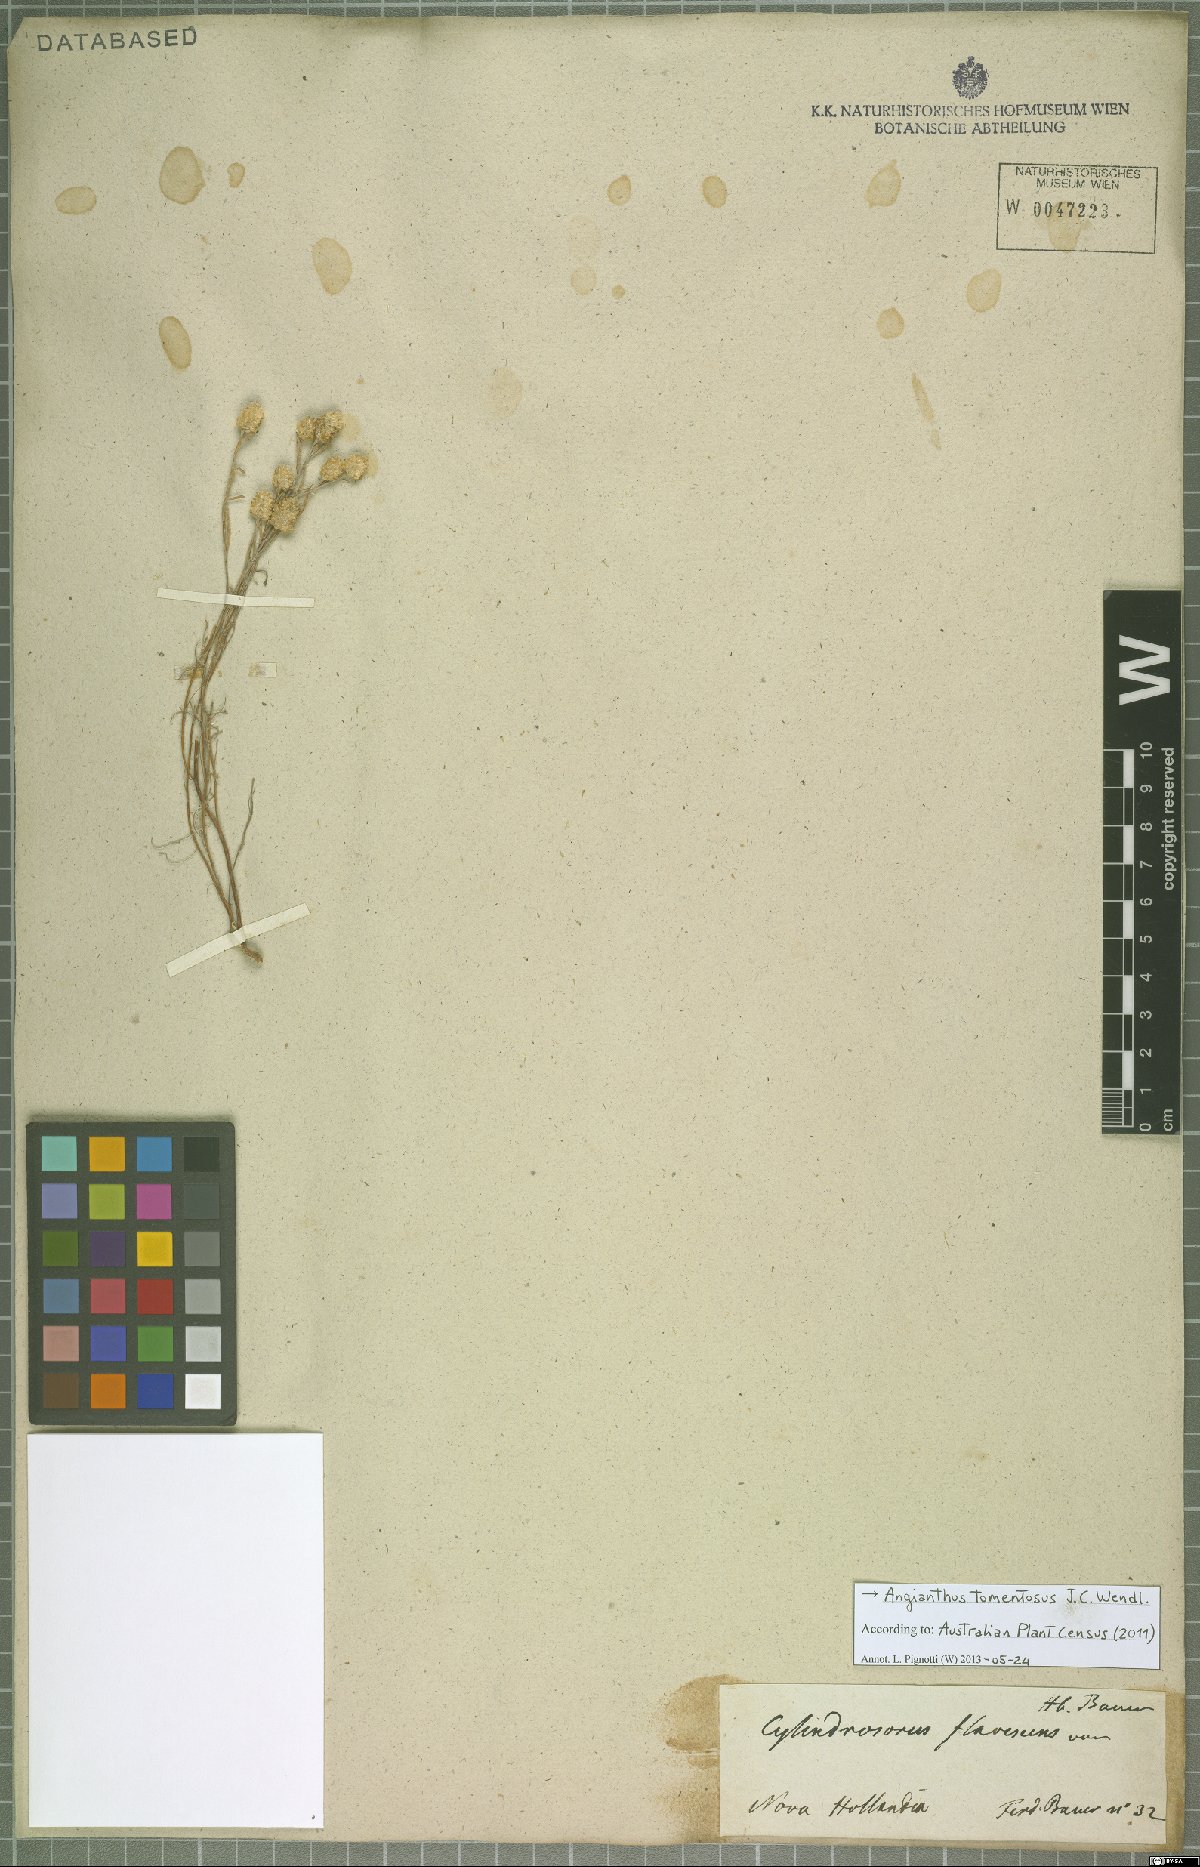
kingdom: Plantae
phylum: Tracheophyta
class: Magnoliopsida
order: Asterales
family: Asteraceae
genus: Siloxerus
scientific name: Siloxerus tomentosus
